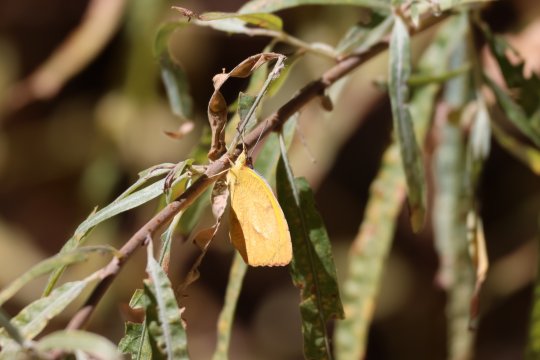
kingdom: Animalia
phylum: Arthropoda
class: Insecta
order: Lepidoptera
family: Pieridae
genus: Abaeis
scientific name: Abaeis nicippe
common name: Sleepy Orange
